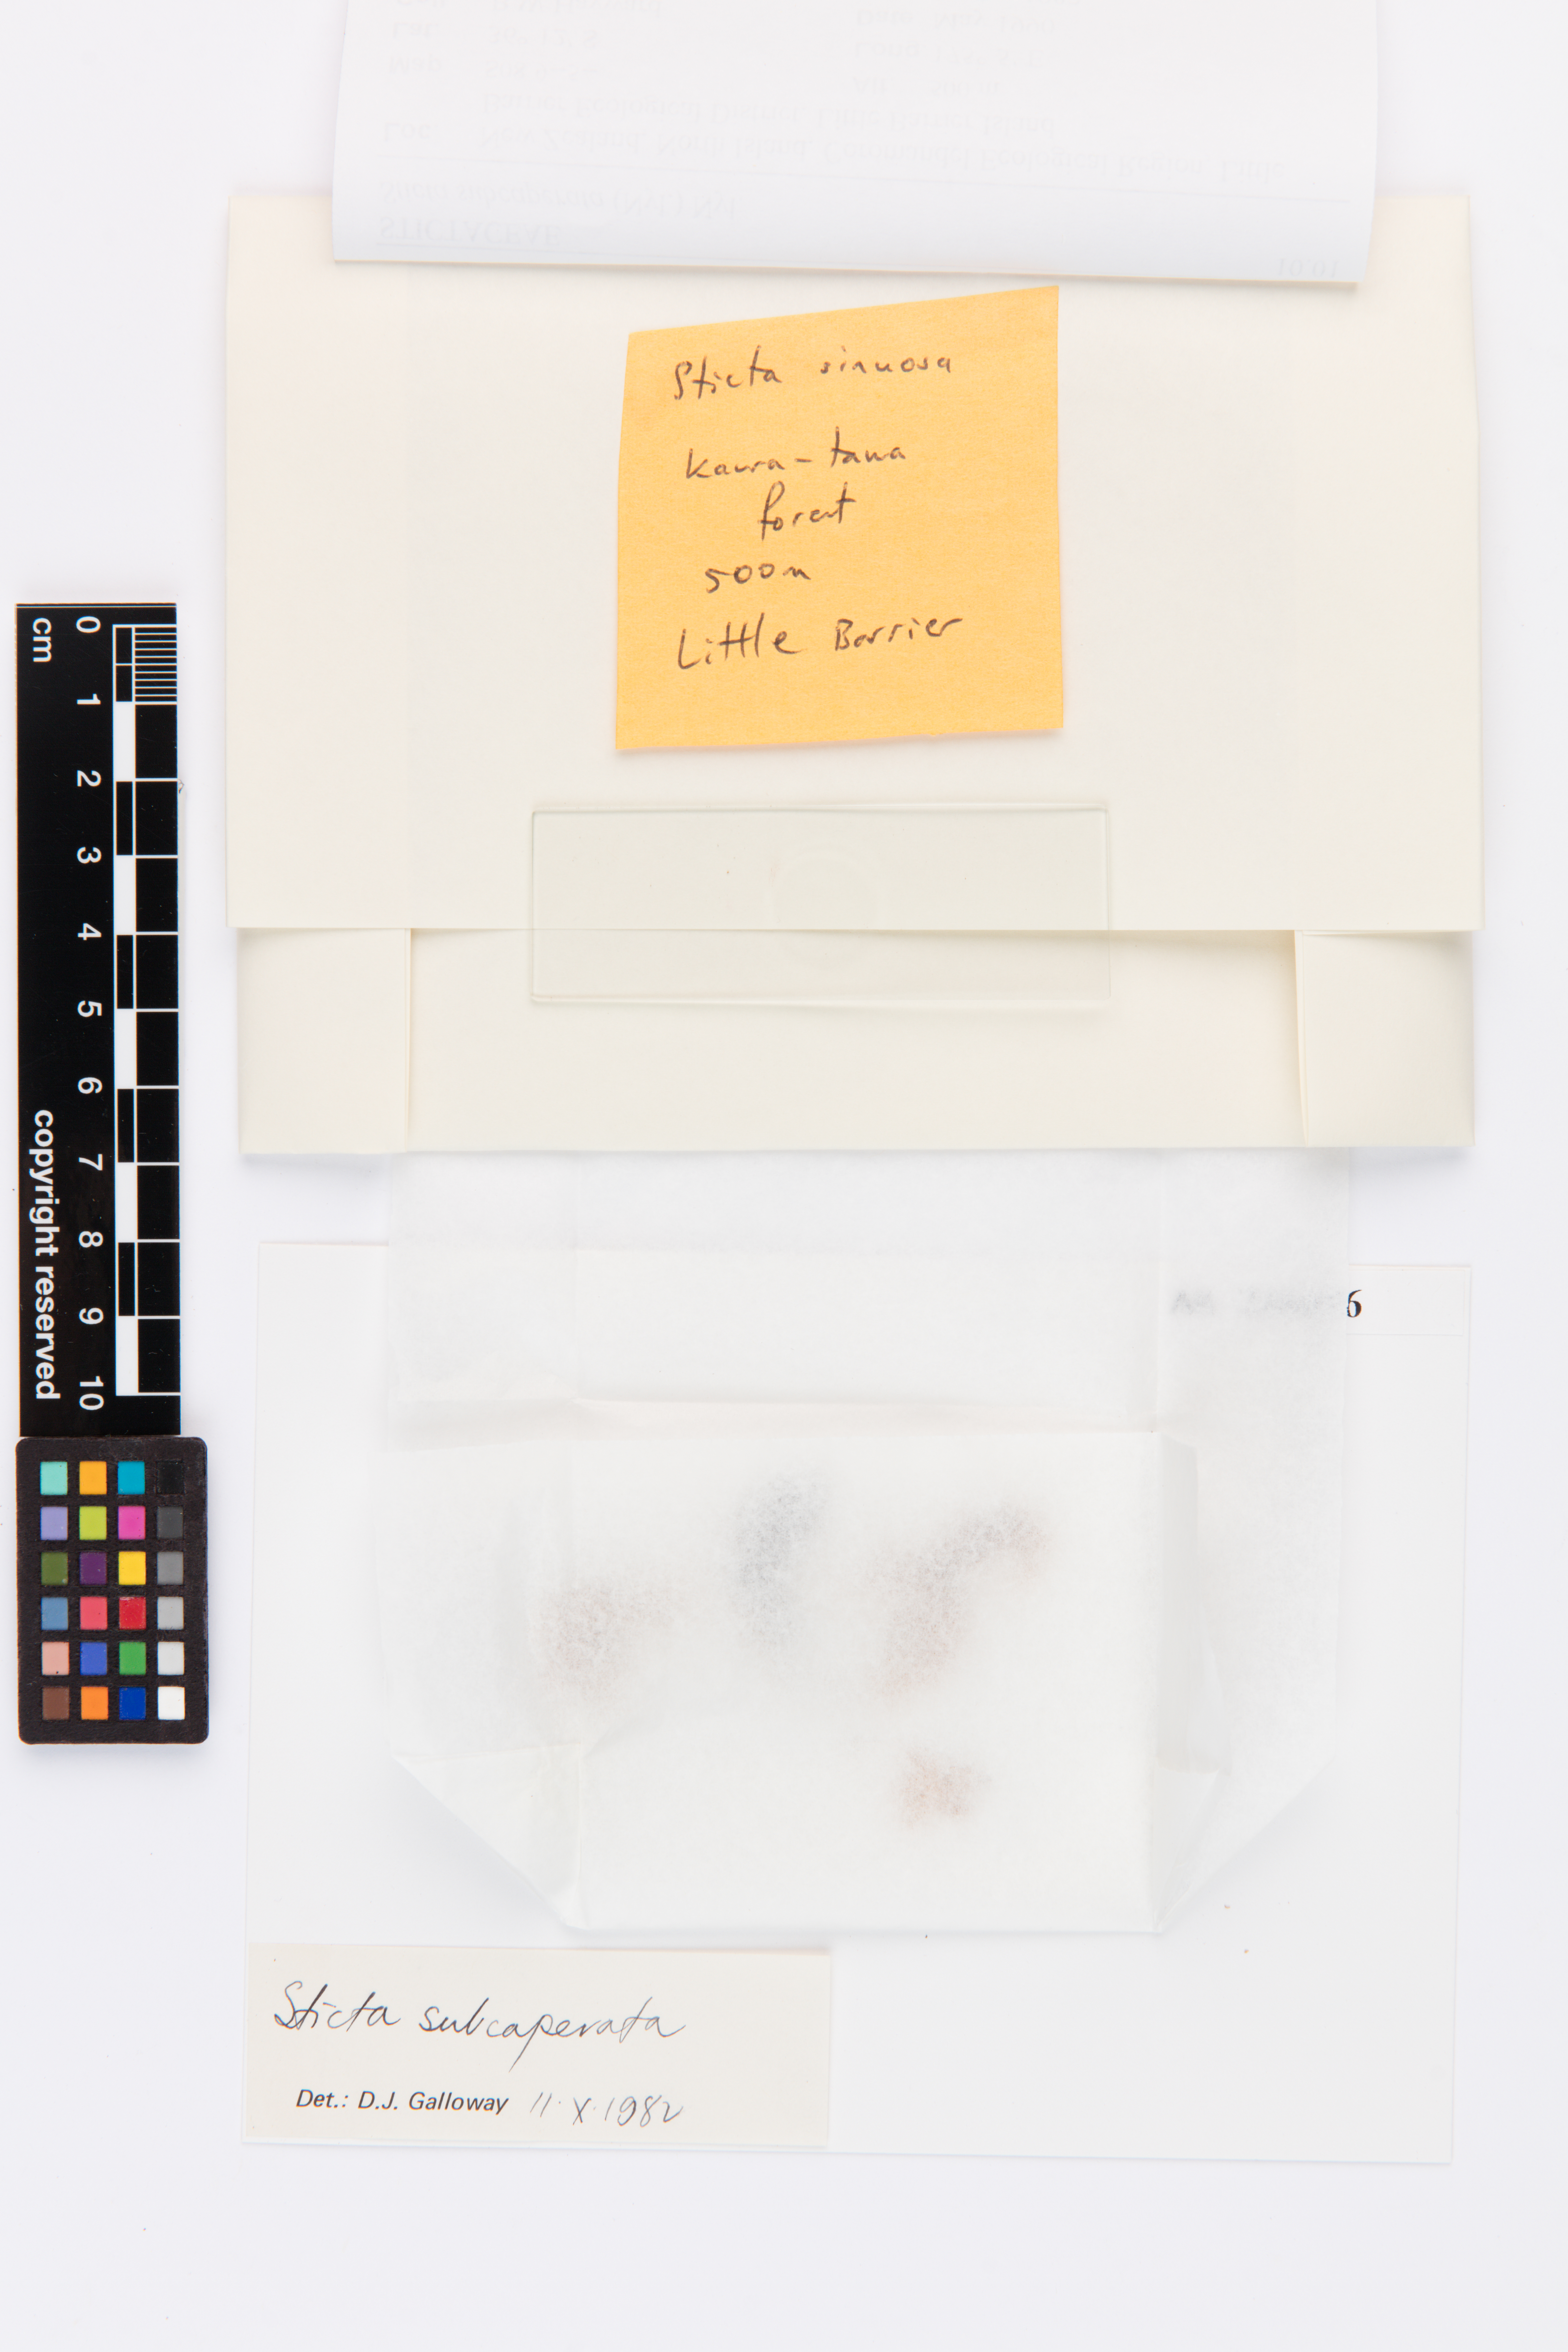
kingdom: Fungi
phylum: Ascomycota
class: Lecanoromycetes
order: Peltigerales
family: Lobariaceae
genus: Sticta
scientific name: Sticta subcaperata
